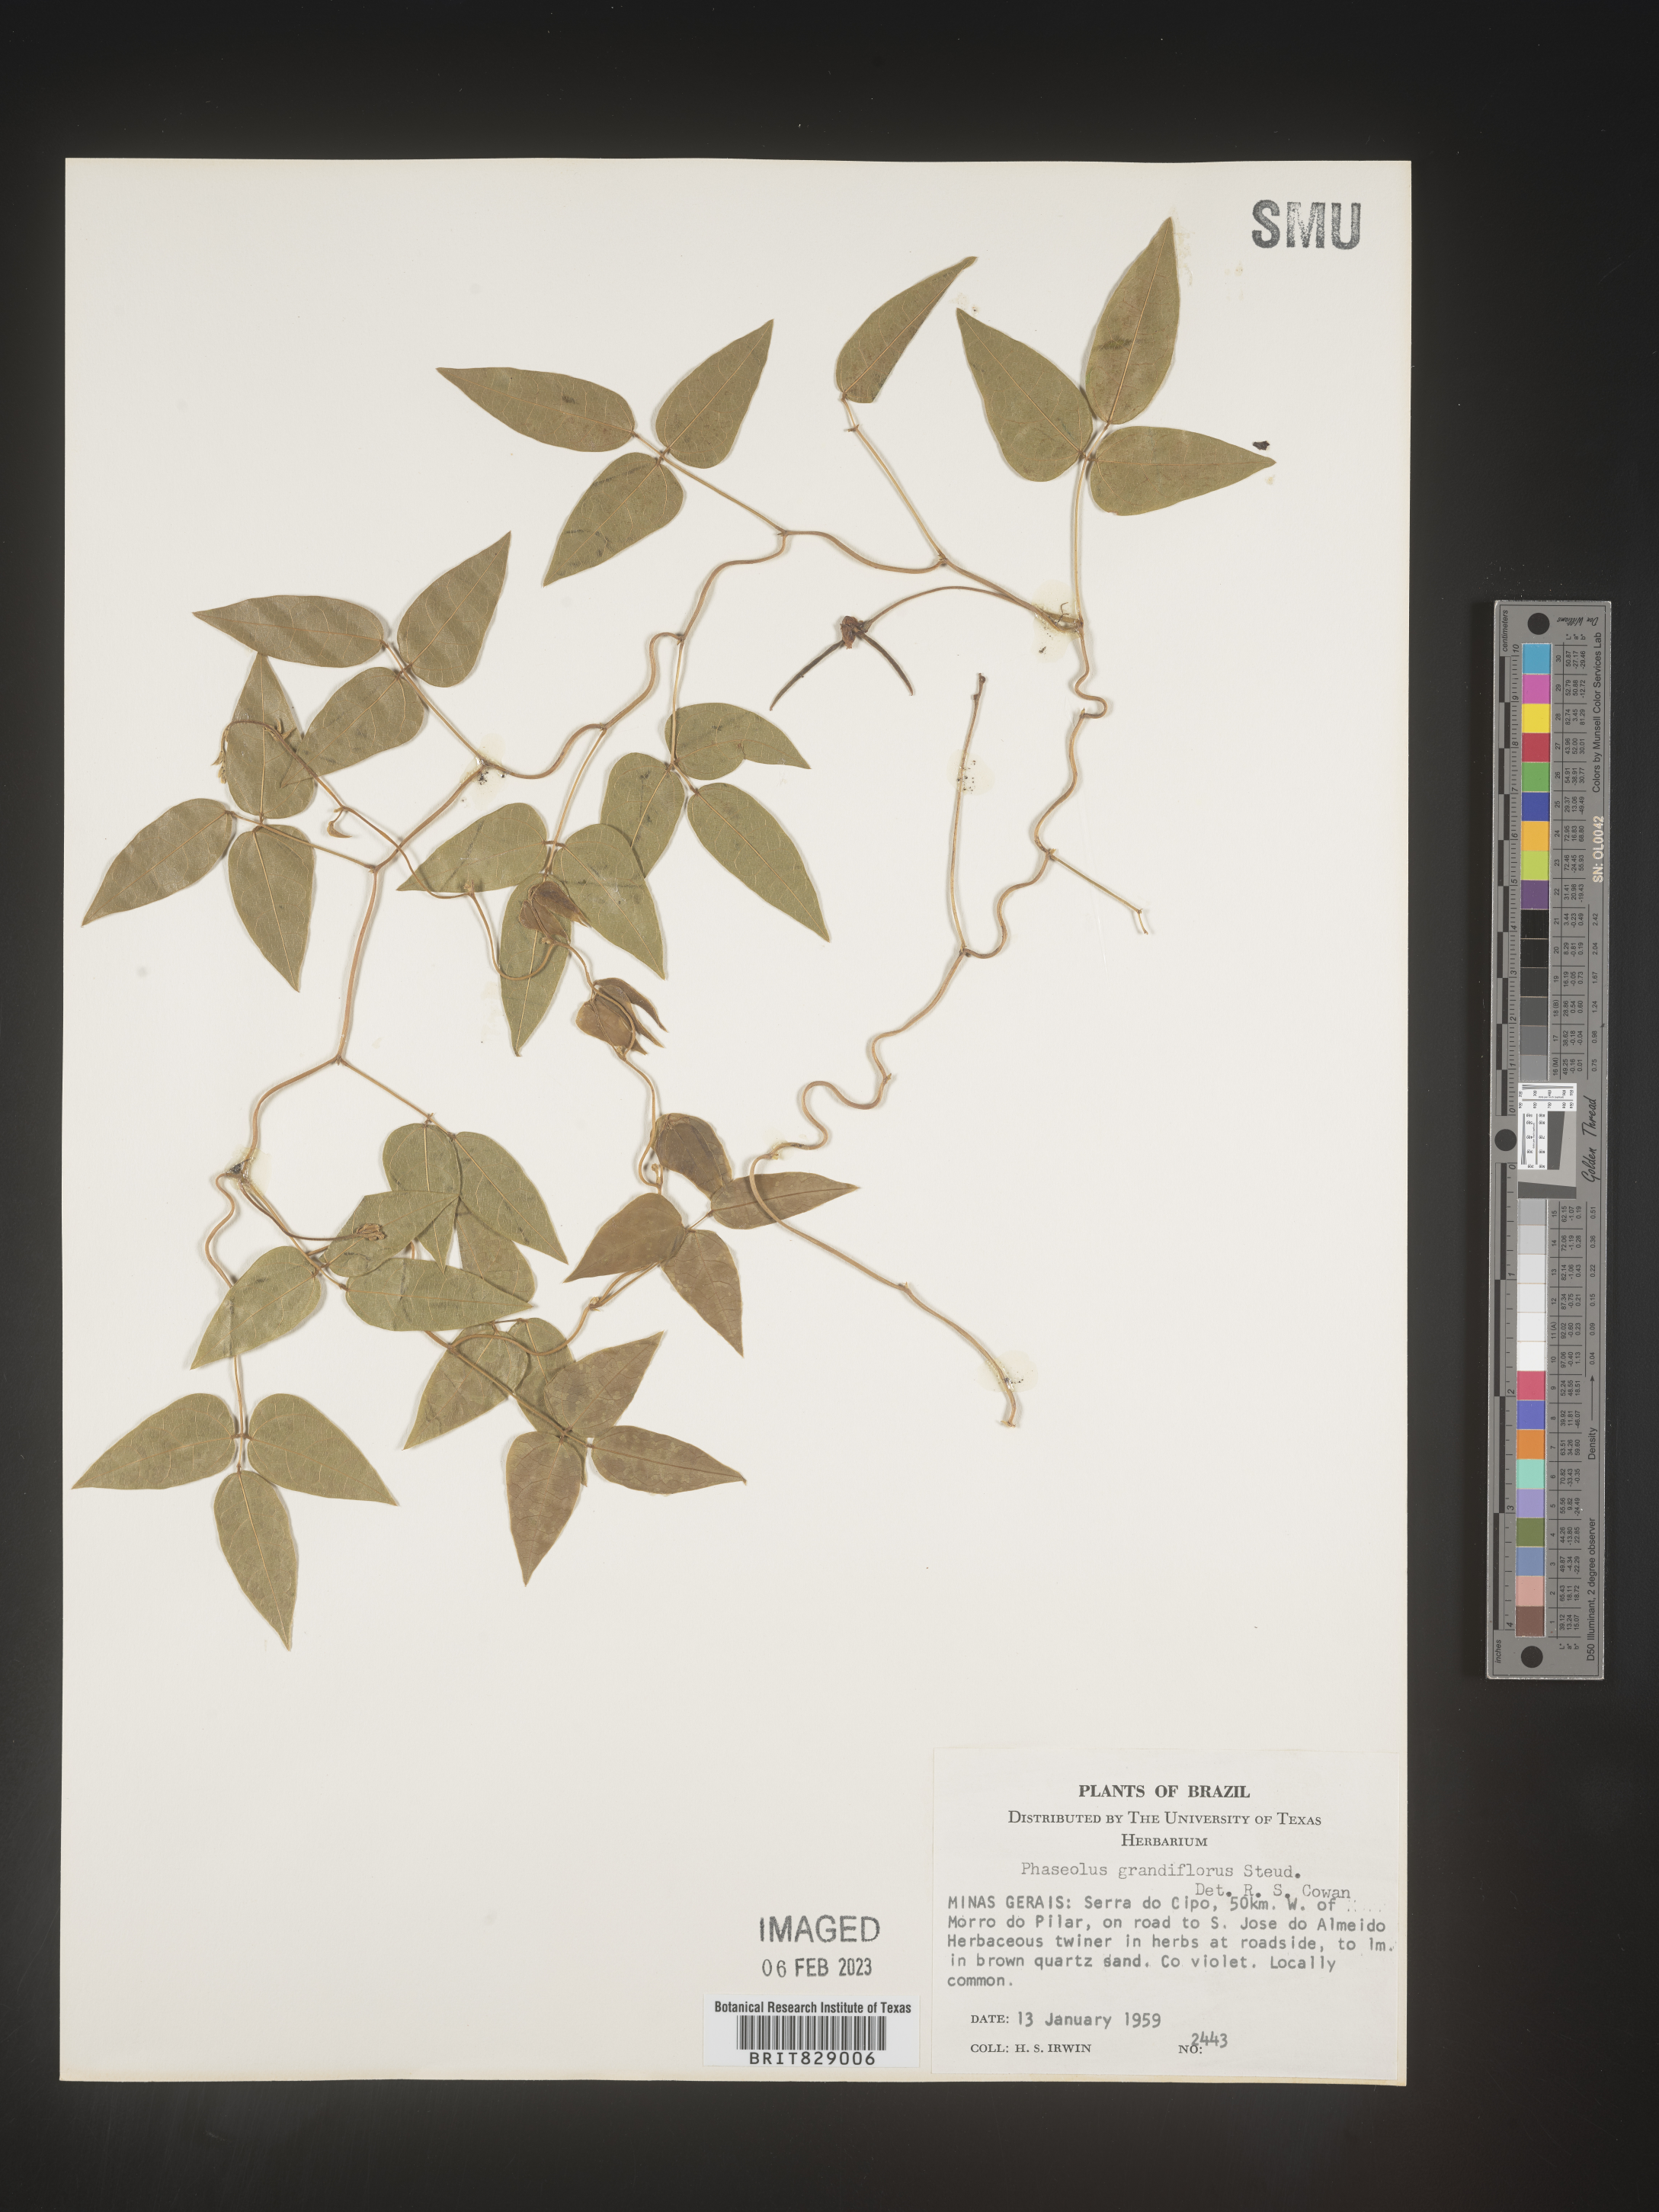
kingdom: Plantae
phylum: Tracheophyta
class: Magnoliopsida
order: Fabales
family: Fabaceae
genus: Phaseolus
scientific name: Phaseolus
